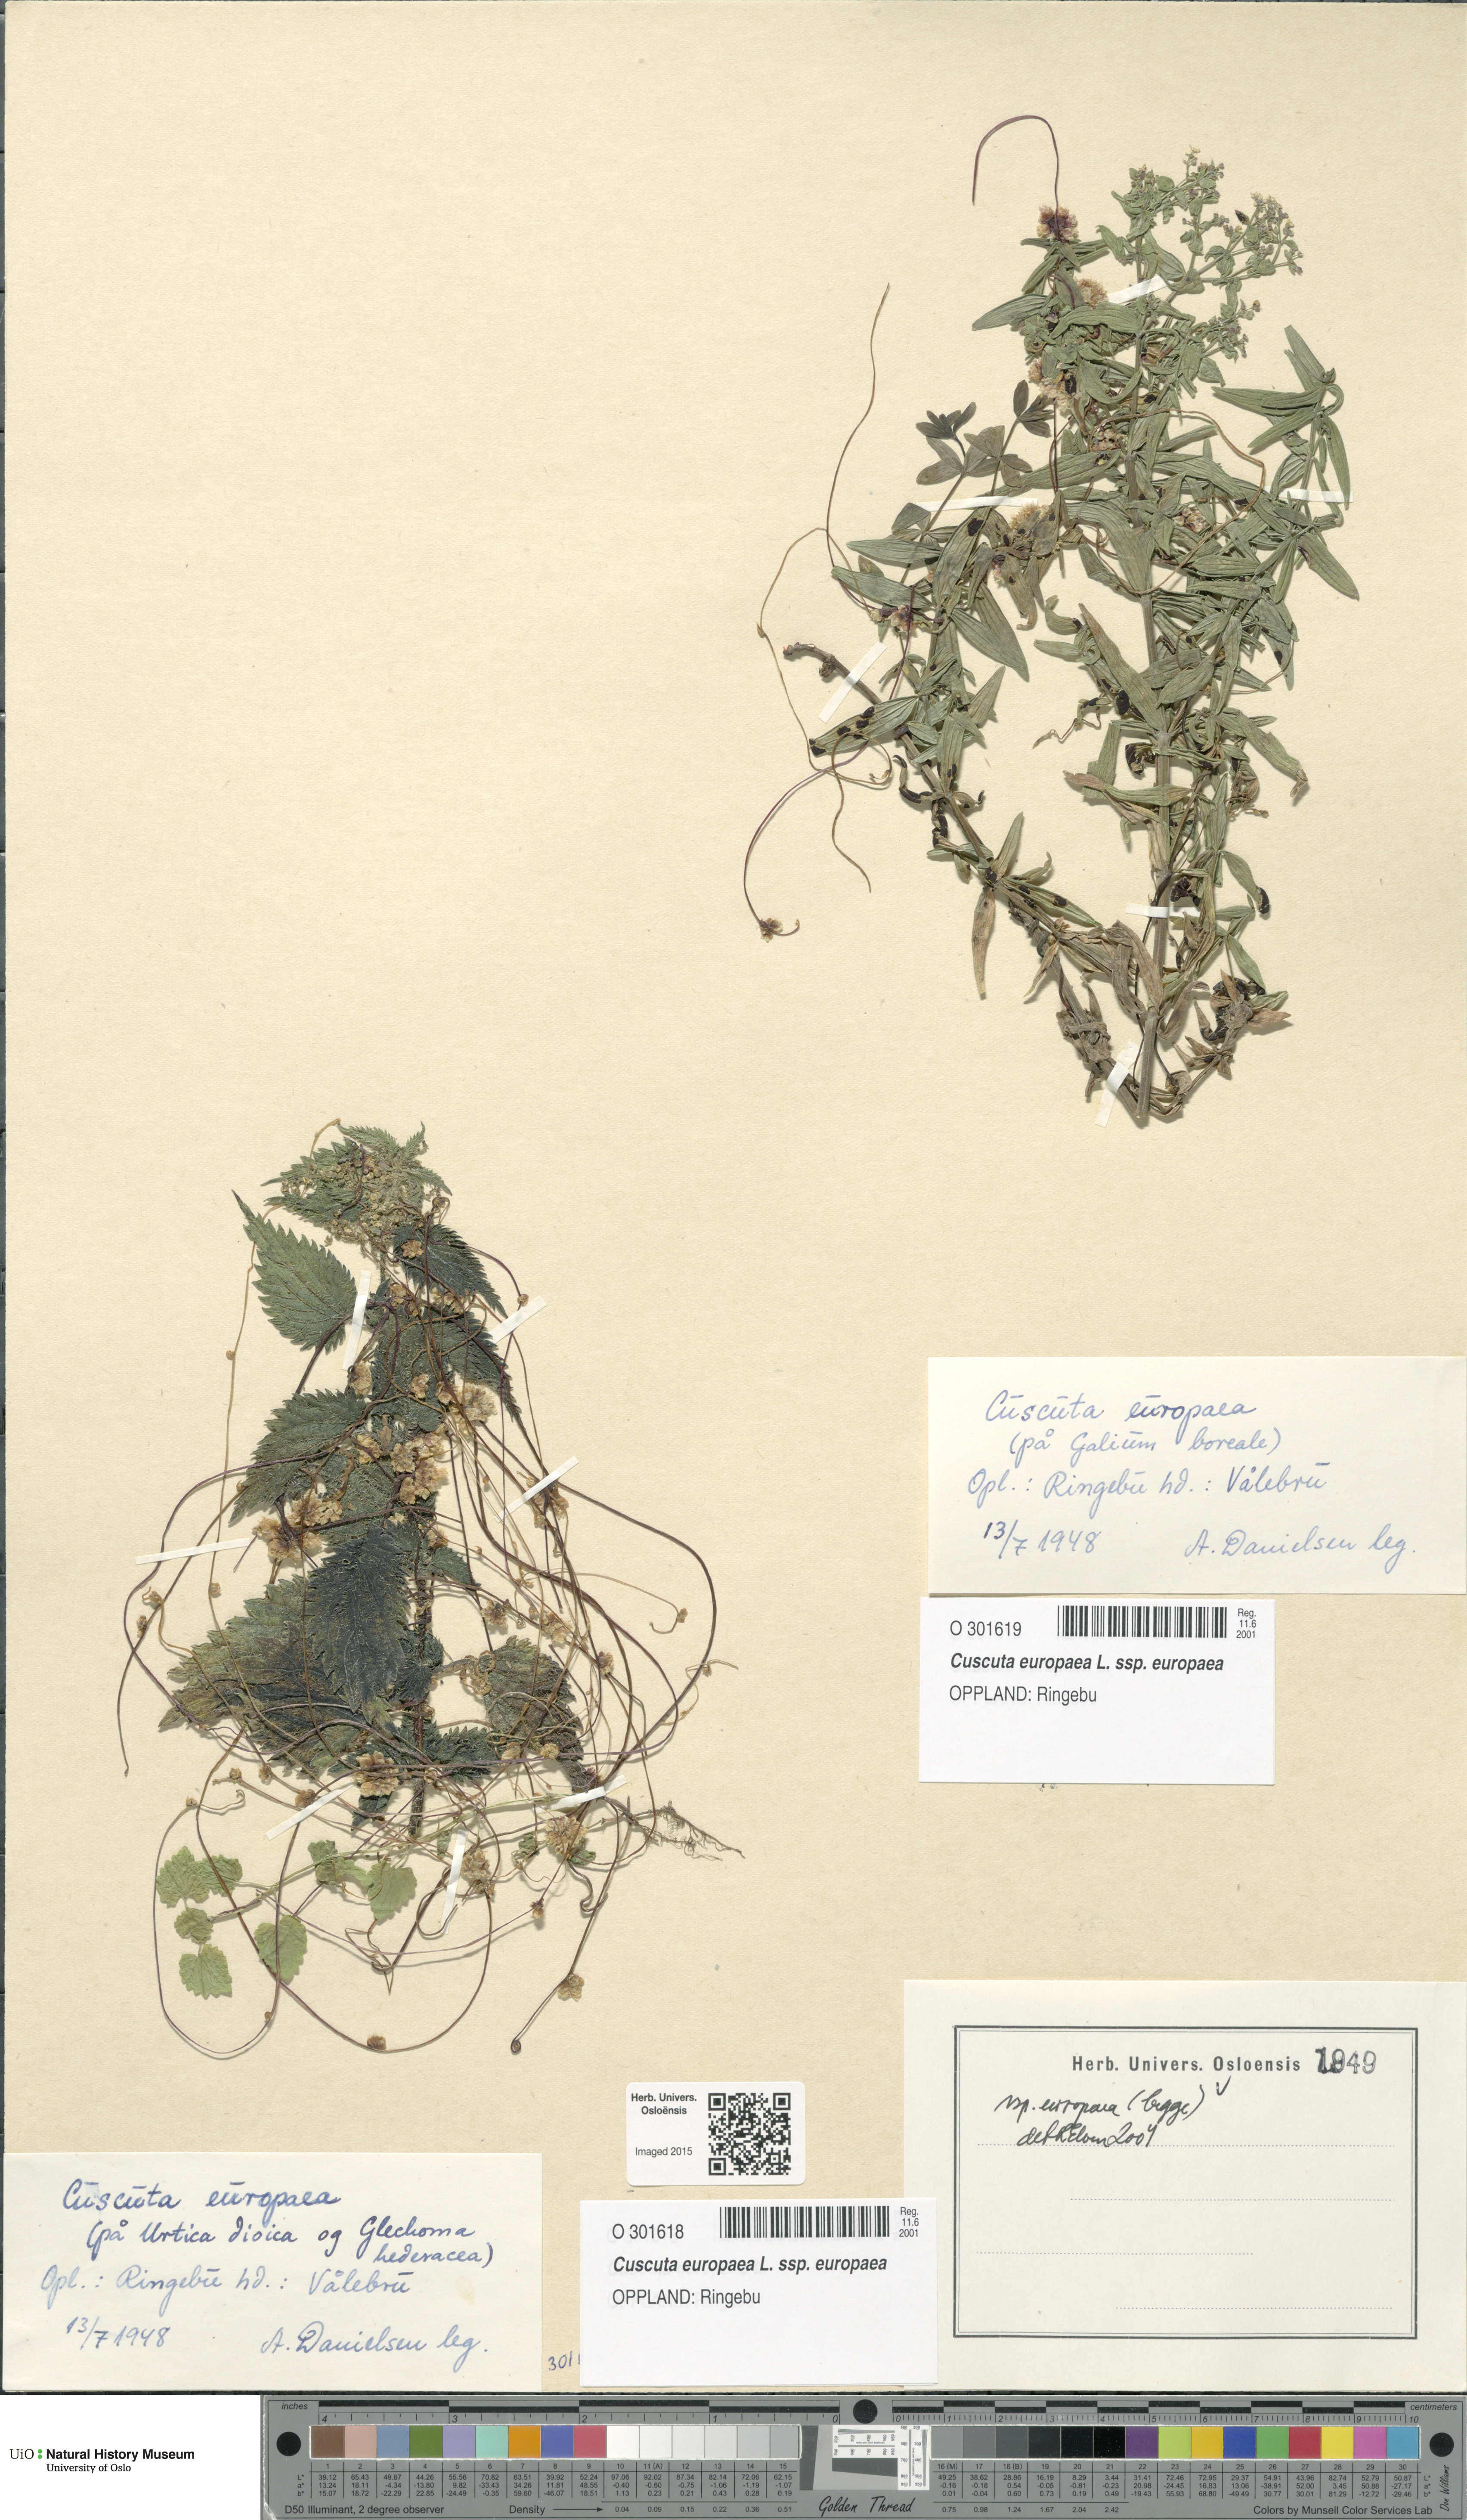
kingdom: Plantae
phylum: Tracheophyta
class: Magnoliopsida
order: Solanales
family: Convolvulaceae
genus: Cuscuta
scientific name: Cuscuta europaea
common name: Greater dodder
